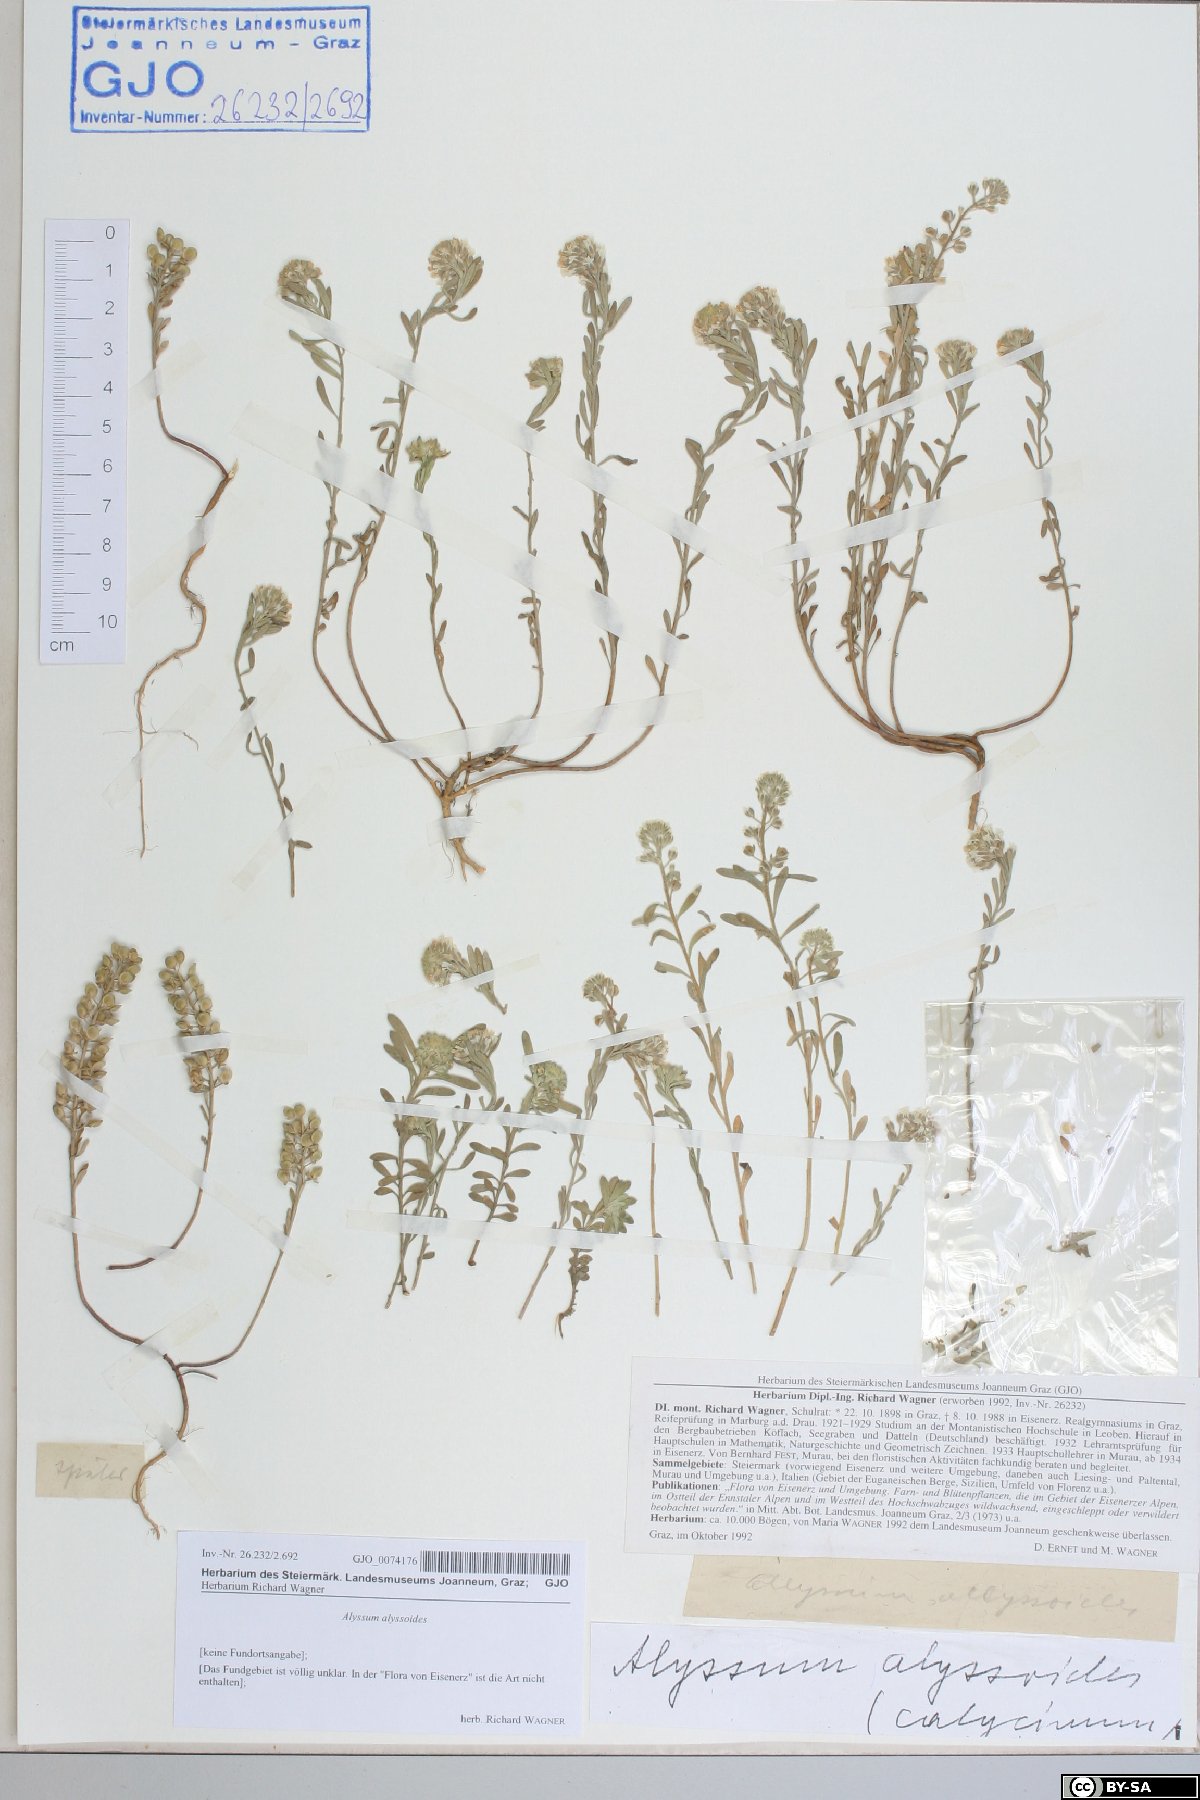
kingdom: Plantae
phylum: Tracheophyta
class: Magnoliopsida
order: Brassicales
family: Brassicaceae
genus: Alyssum
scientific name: Alyssum alyssoides
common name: Small alison
